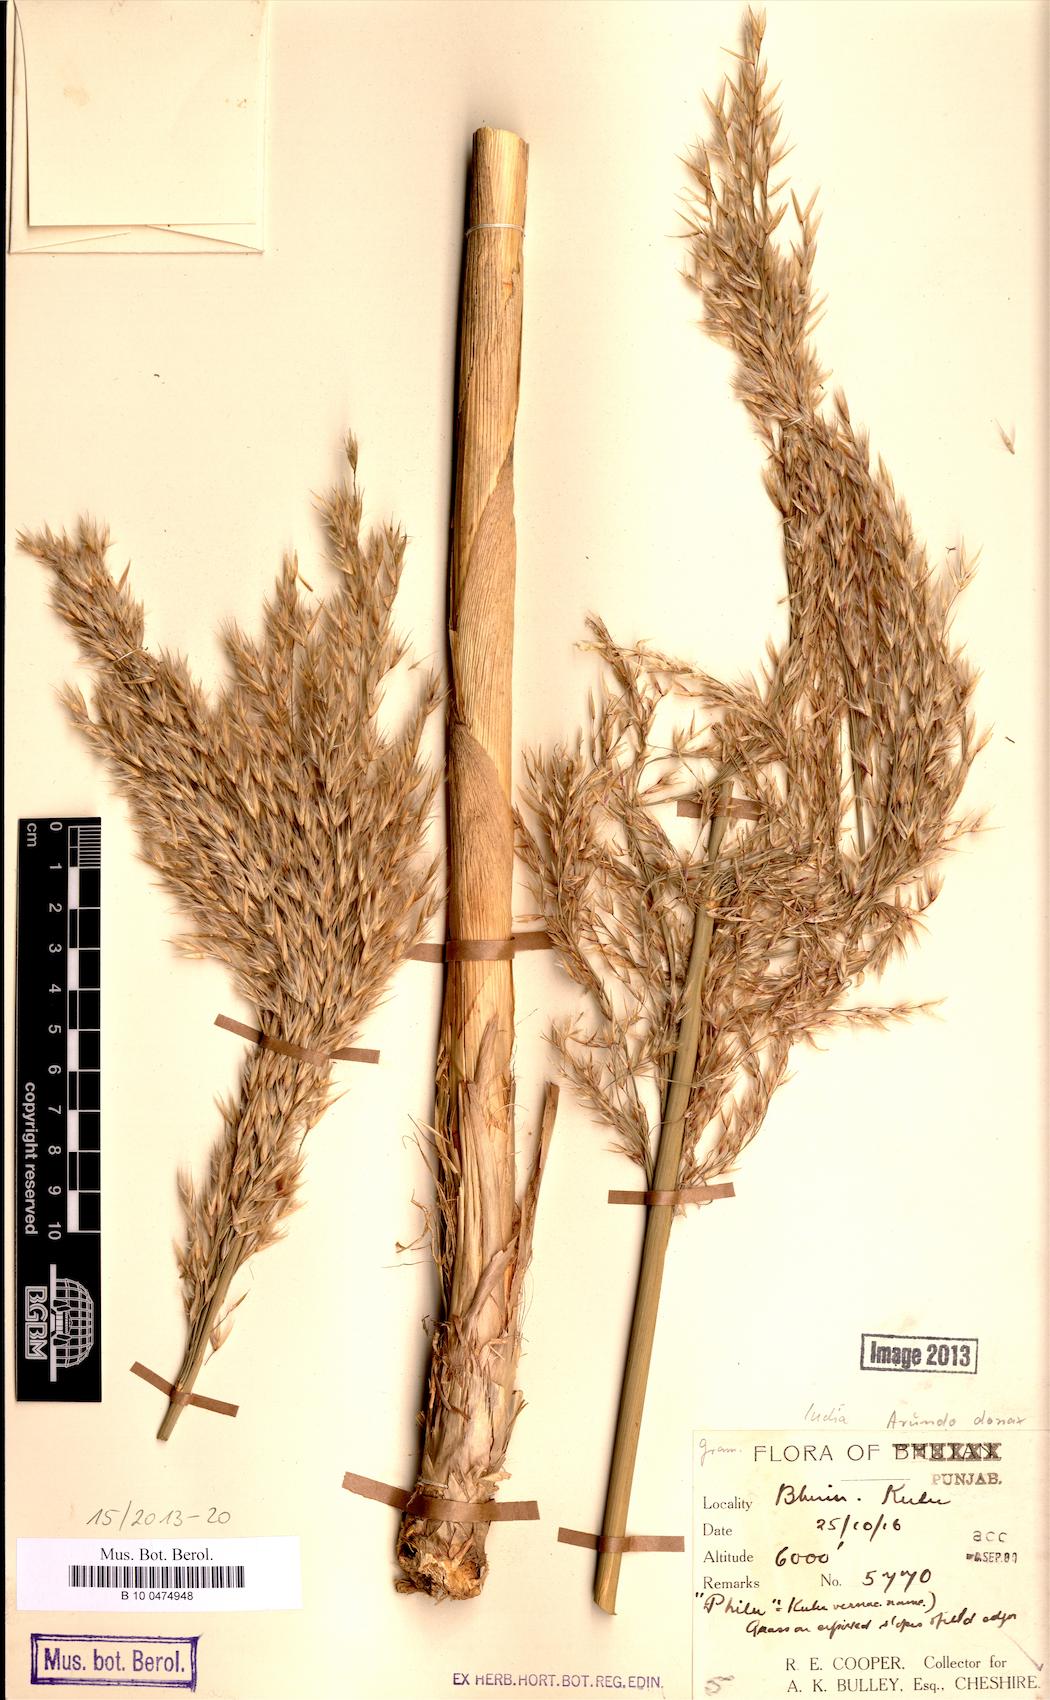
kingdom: Plantae
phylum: Tracheophyta
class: Liliopsida
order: Poales
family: Poaceae
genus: Arundo
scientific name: Arundo donax
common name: Giant reed
